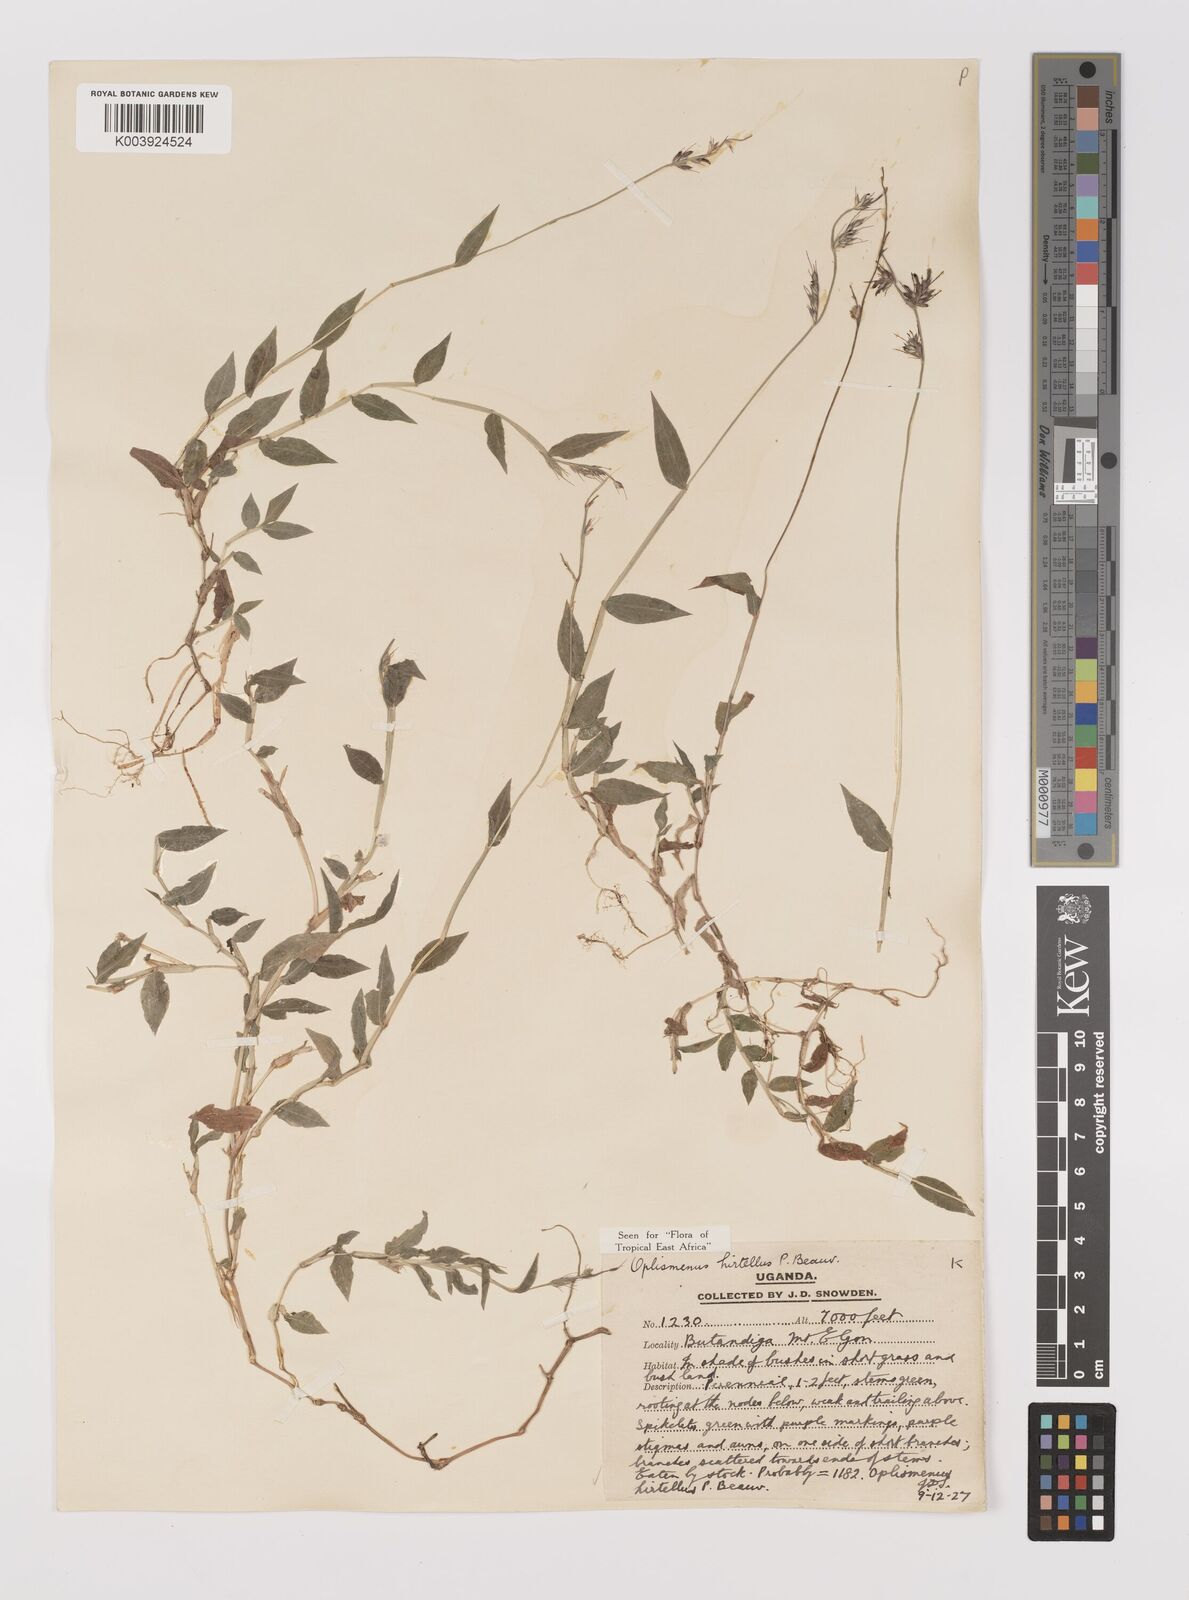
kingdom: Plantae
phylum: Tracheophyta
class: Liliopsida
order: Poales
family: Poaceae
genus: Oplismenus
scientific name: Oplismenus hirtellus
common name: Basketgrass
